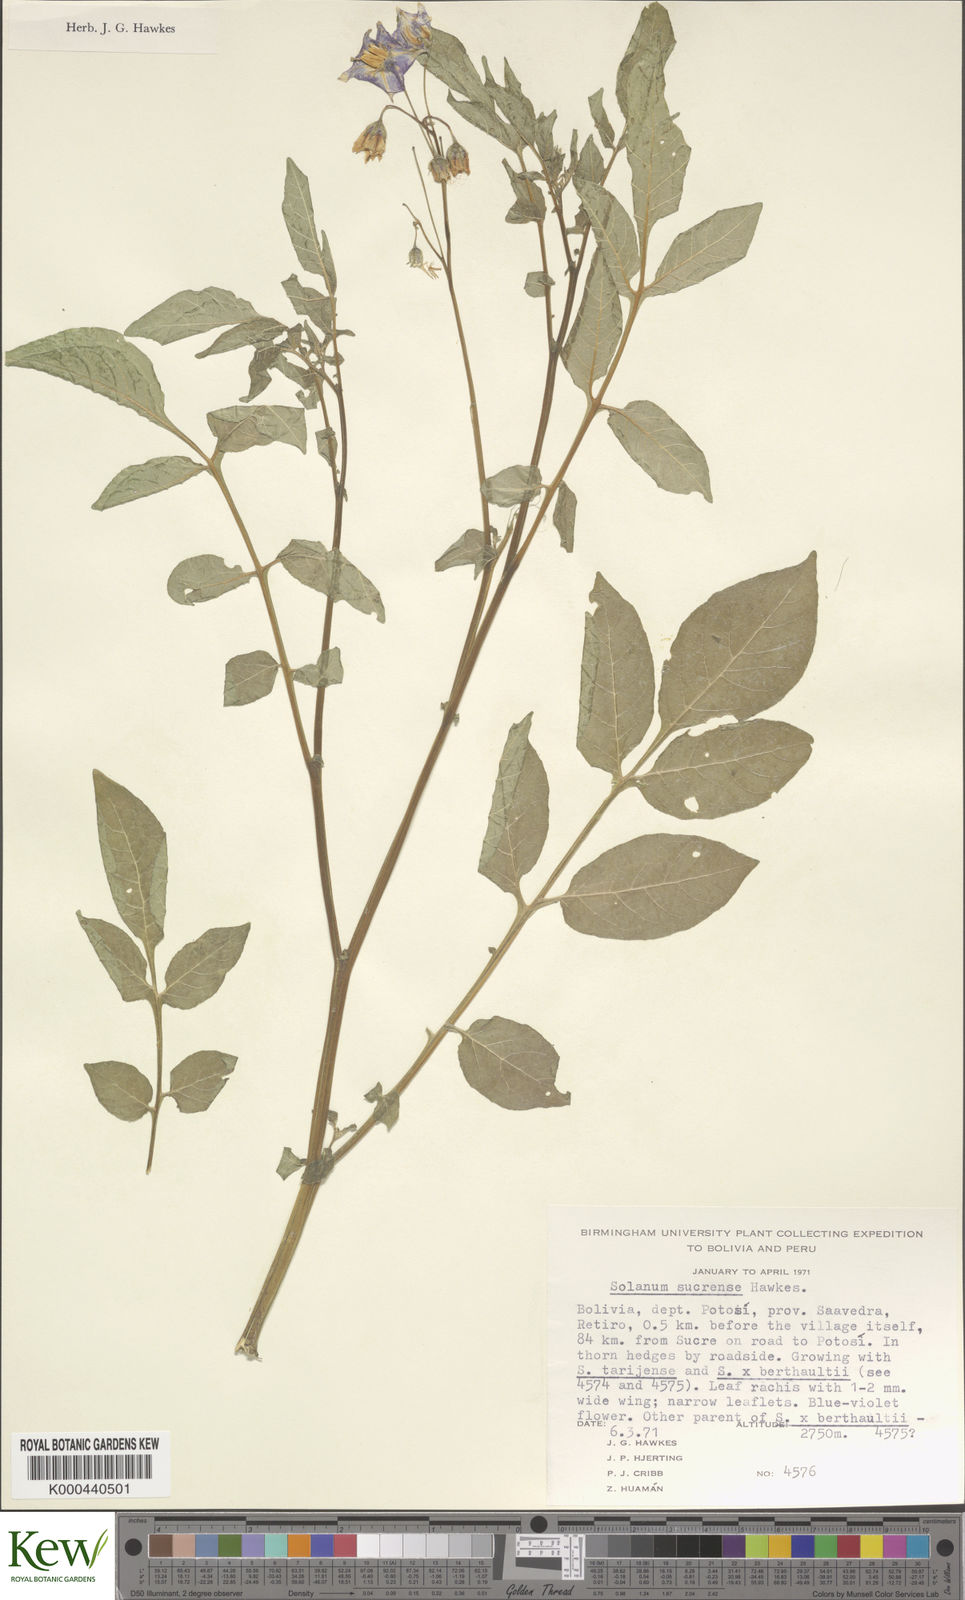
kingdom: Plantae
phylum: Tracheophyta
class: Magnoliopsida
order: Solanales
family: Solanaceae
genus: Solanum
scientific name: Solanum brevicaule
